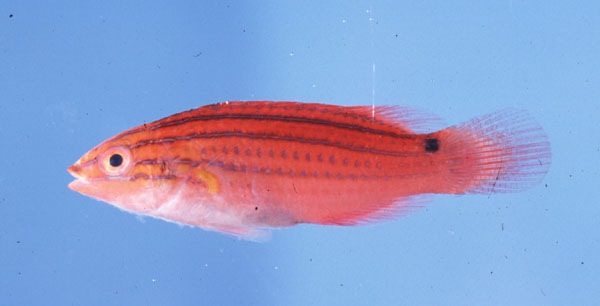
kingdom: Animalia
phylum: Chordata
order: Perciformes
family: Labridae
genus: Cirrhilabrus
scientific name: Cirrhilabrus rubriventralis
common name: Social wrasse
